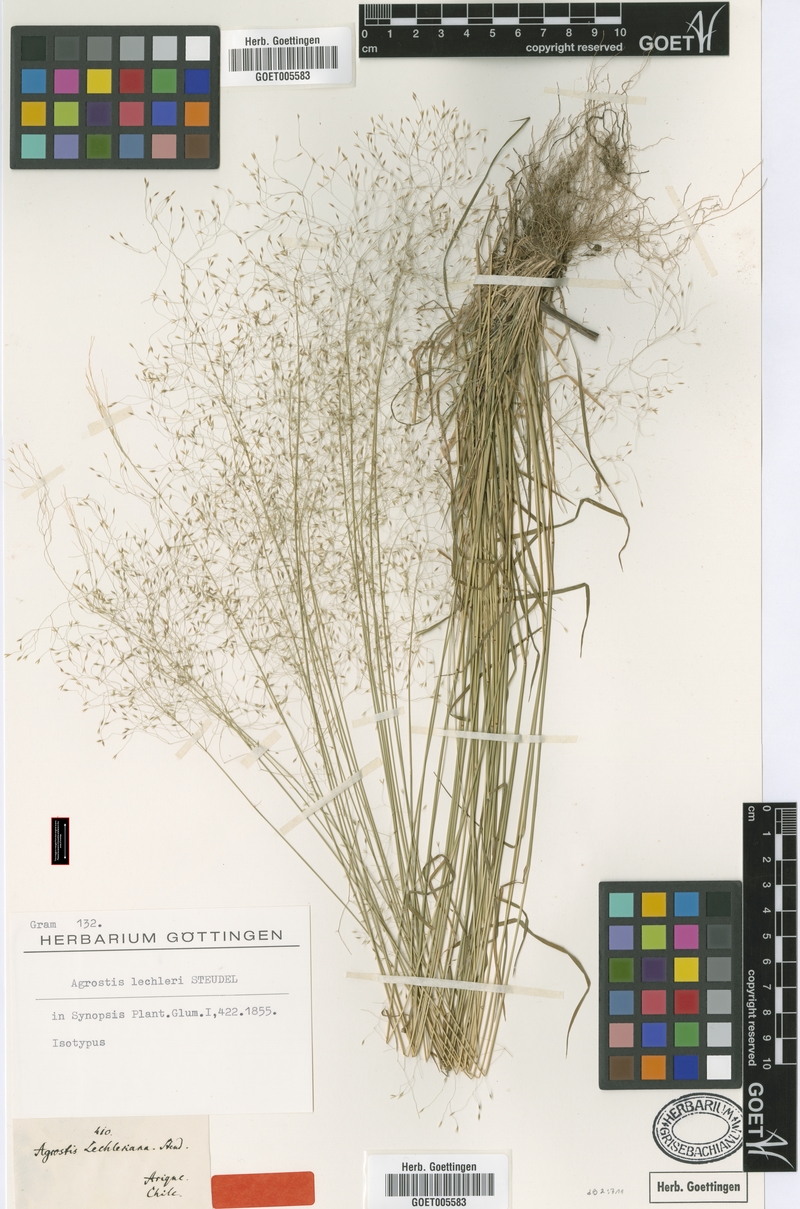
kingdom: Plantae
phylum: Tracheophyta
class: Liliopsida
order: Poales
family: Poaceae
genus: Agrostis
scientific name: Agrostis leptotricha
